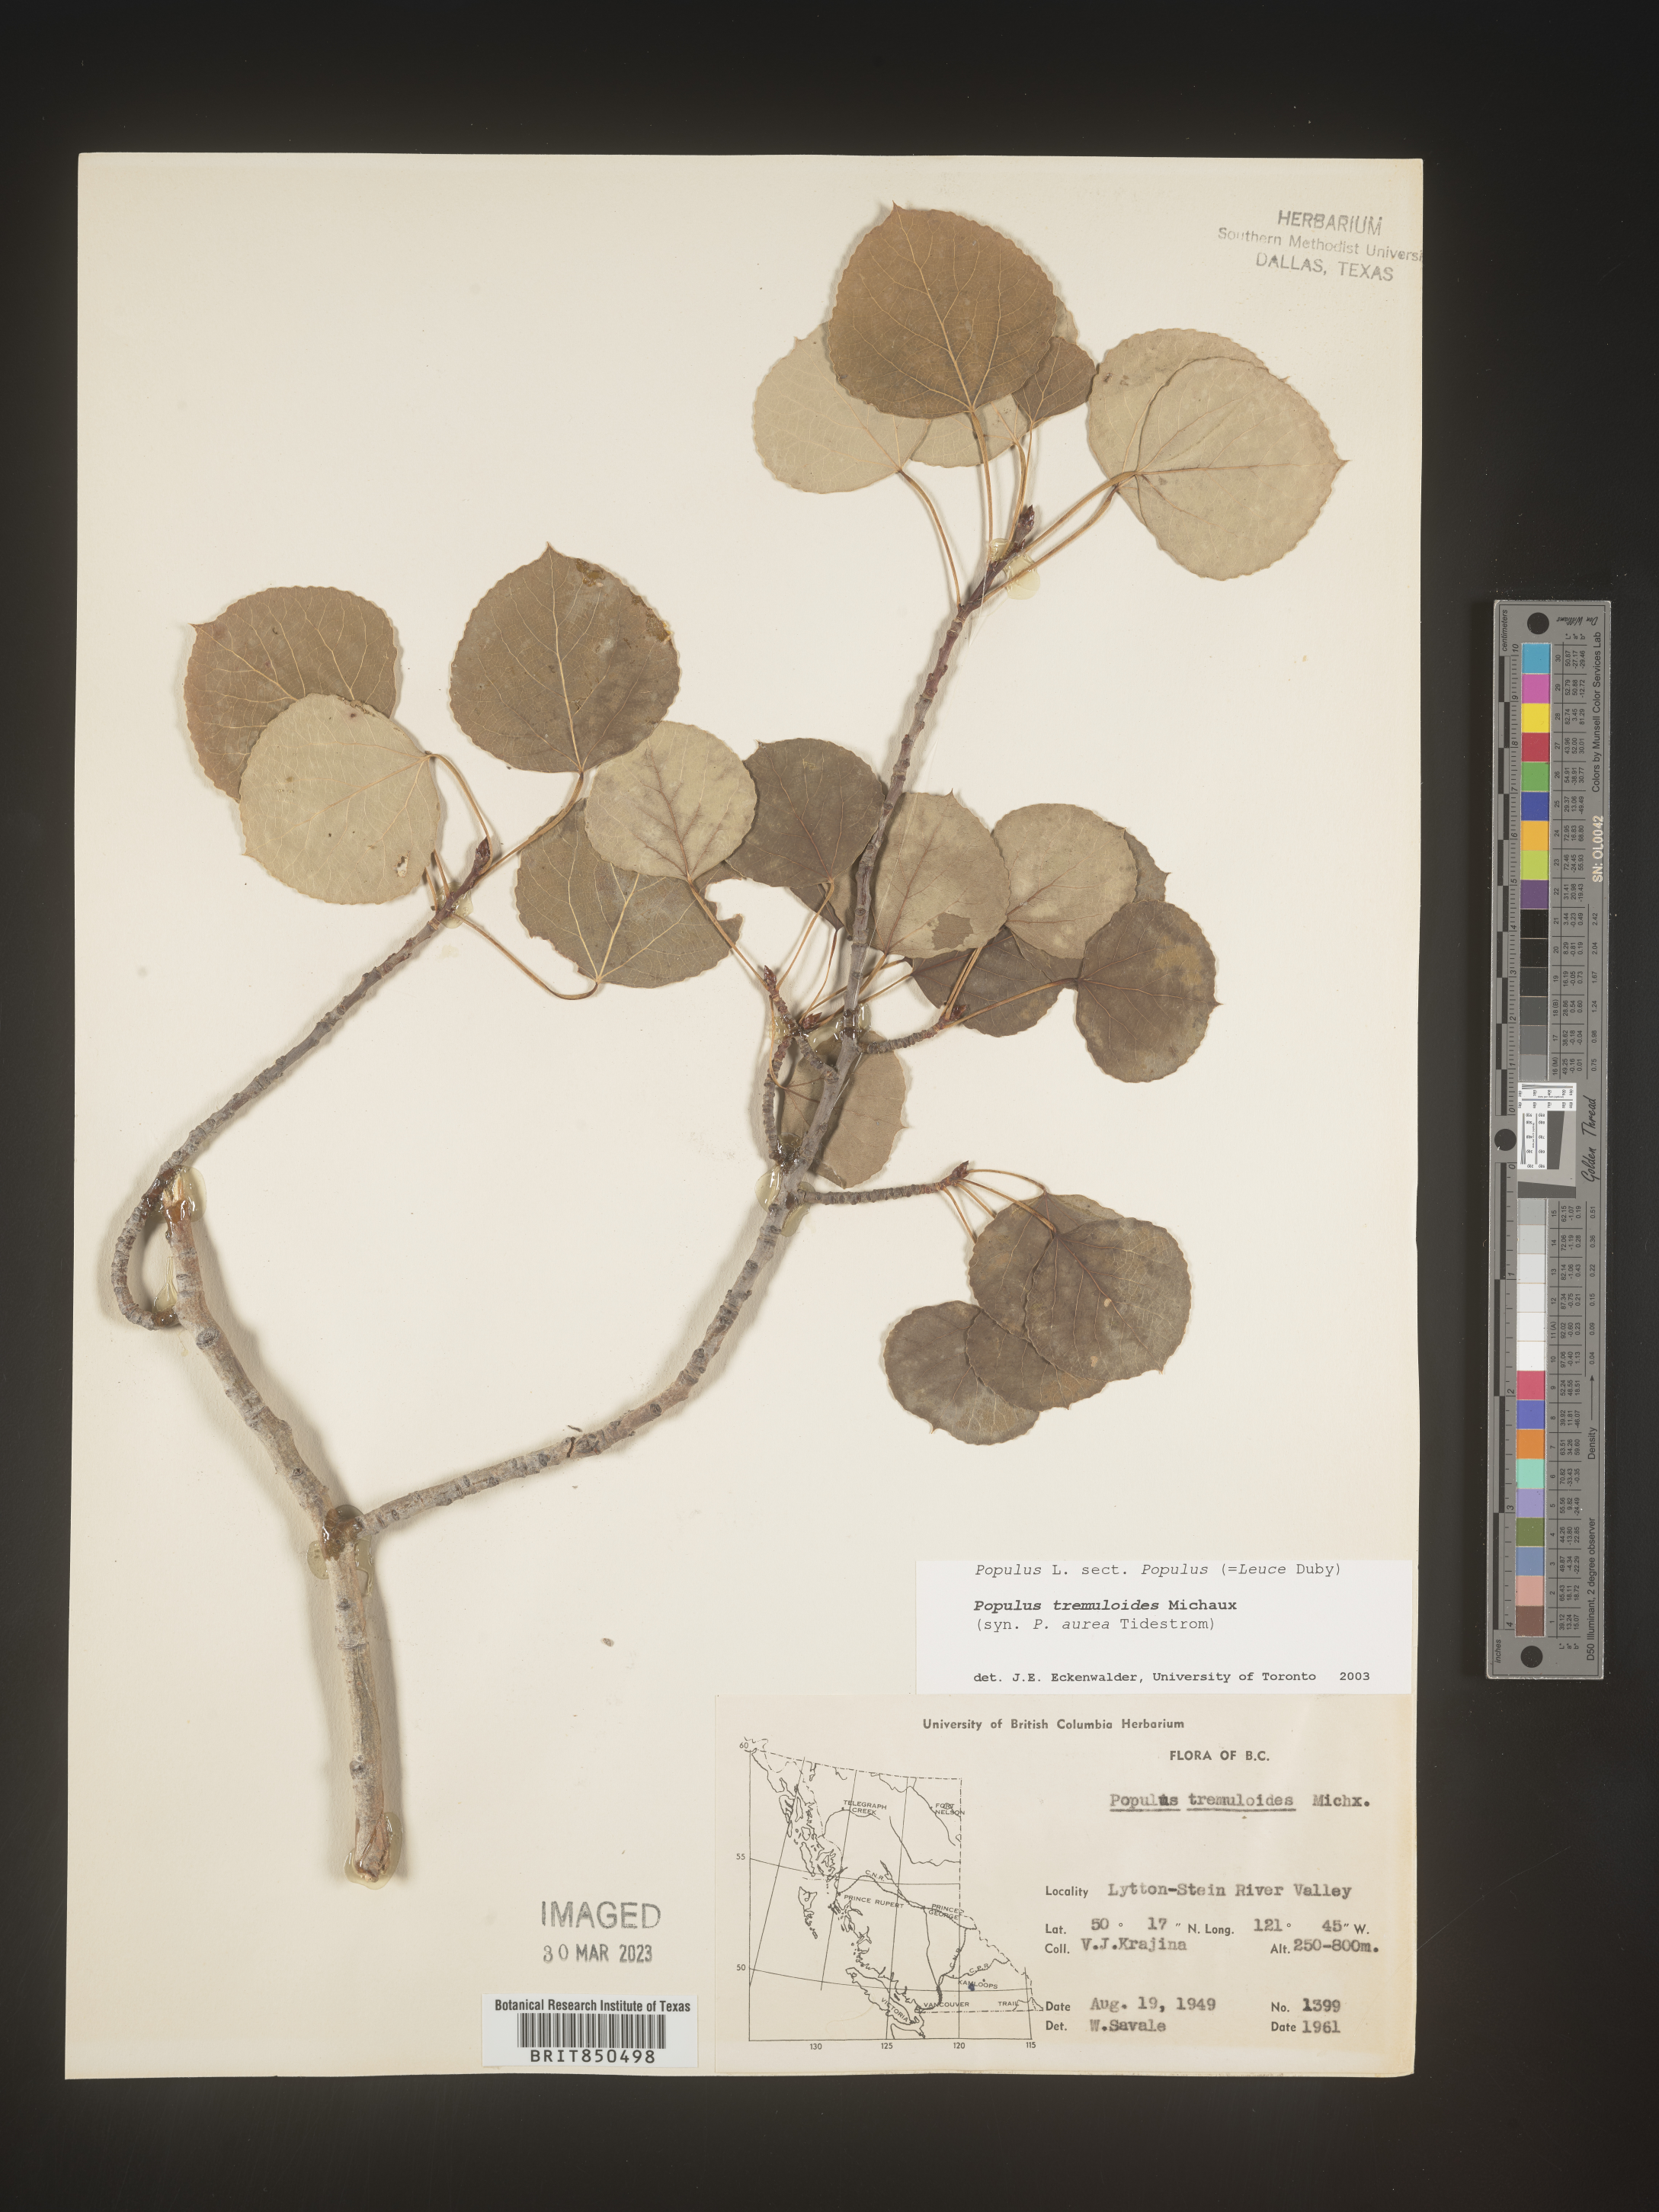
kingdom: Plantae
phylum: Tracheophyta
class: Magnoliopsida
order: Malpighiales
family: Salicaceae
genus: Populus
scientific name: Populus tremuloides
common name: Quaking aspen
